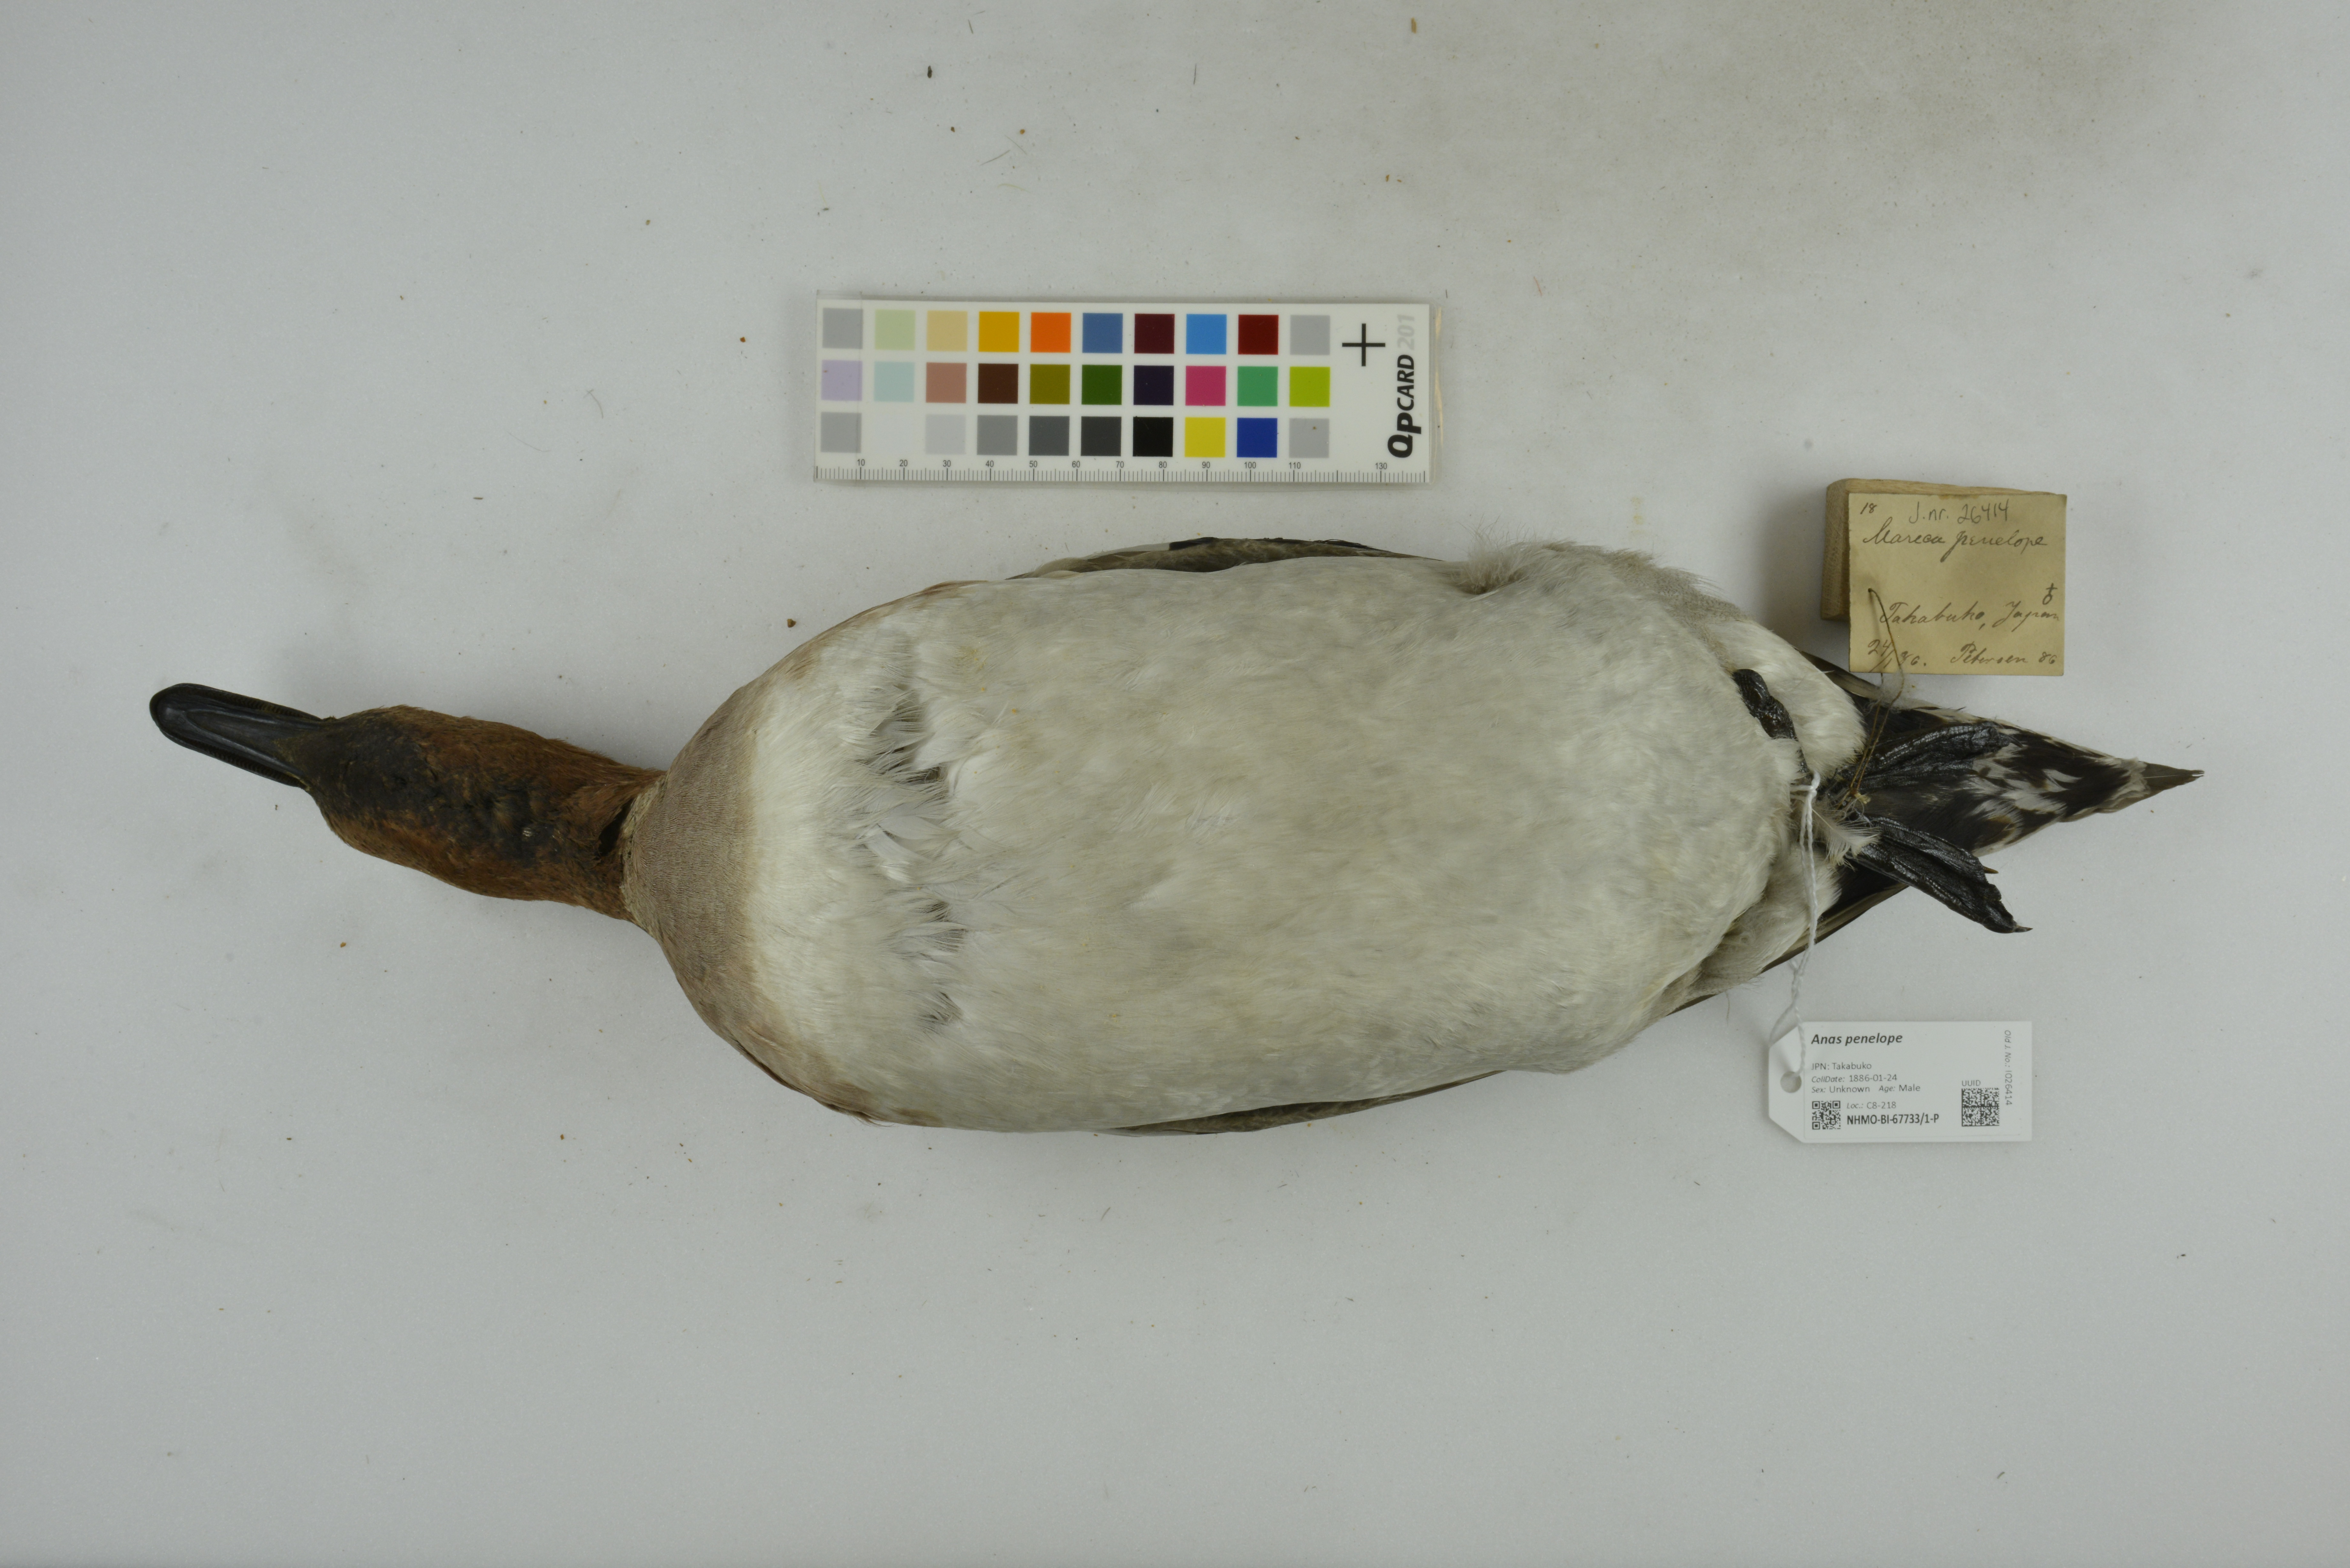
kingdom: Animalia
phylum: Chordata
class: Aves
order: Anseriformes
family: Anatidae
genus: Mareca
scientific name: Mareca penelope
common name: Eurasian wigeon
